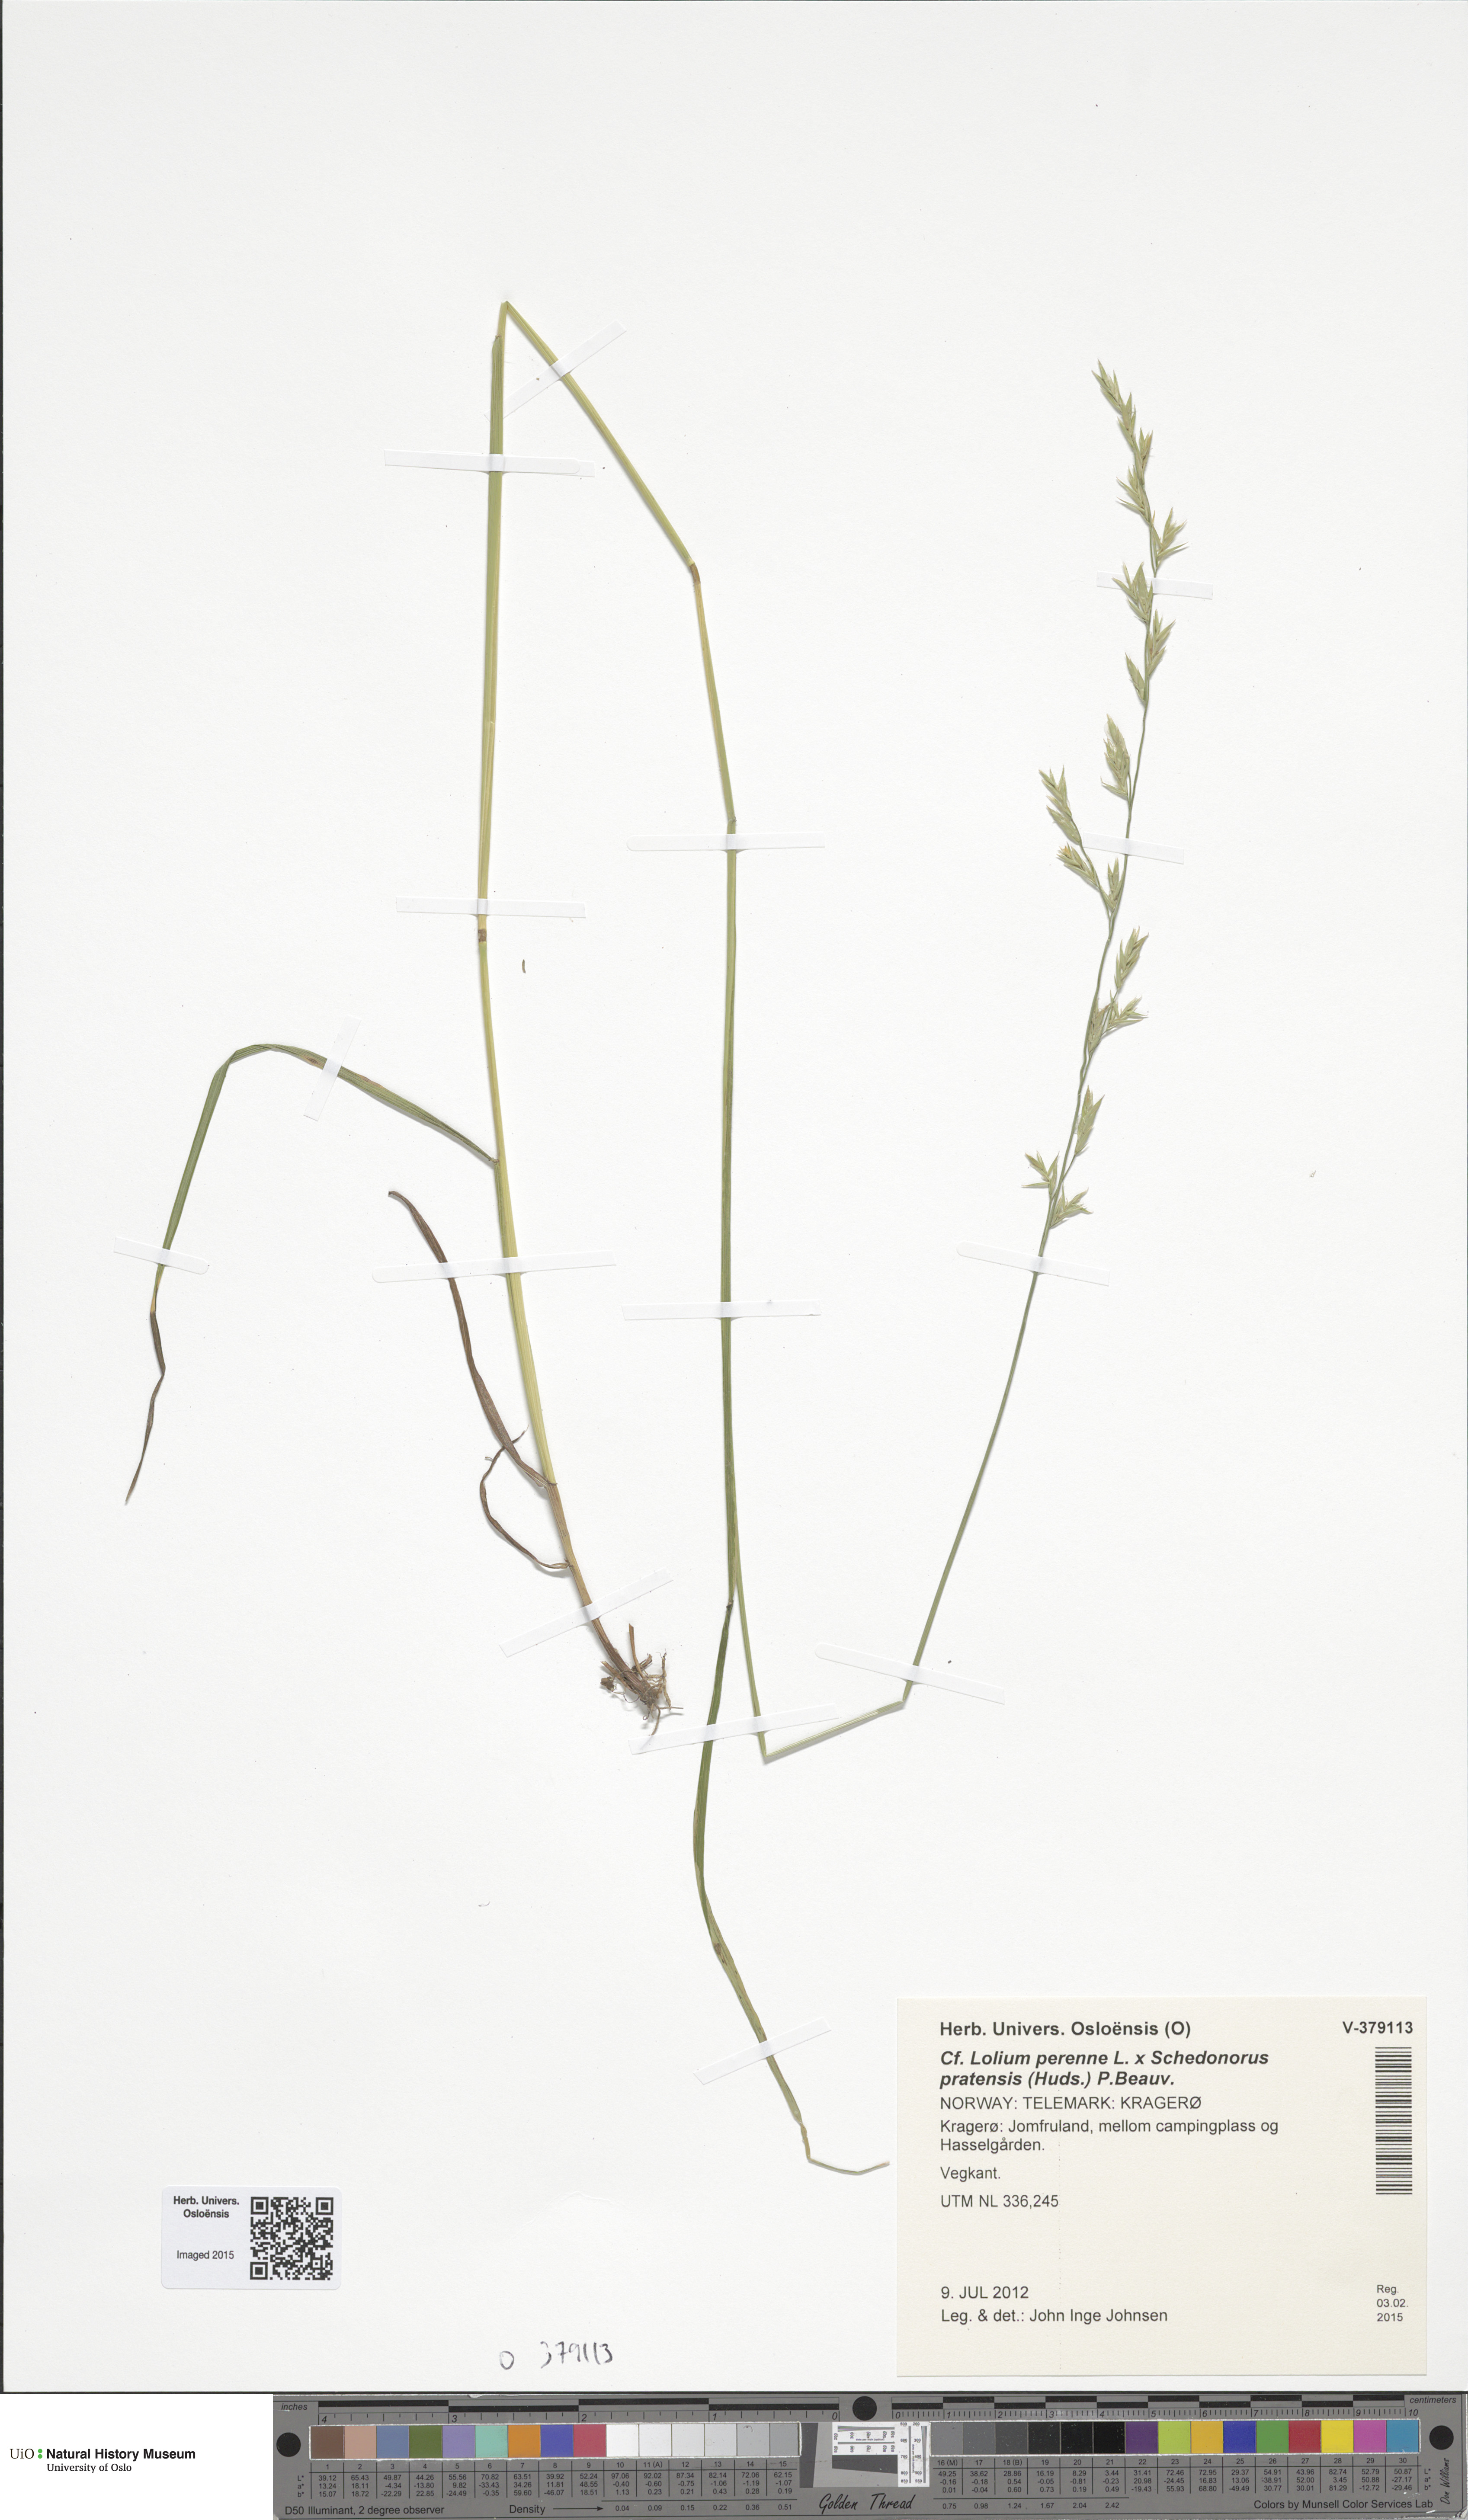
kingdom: Plantae
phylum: Tracheophyta
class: Liliopsida
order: Poales
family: Poaceae
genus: Lolium
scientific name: Lolium pratense
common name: Dover grass
